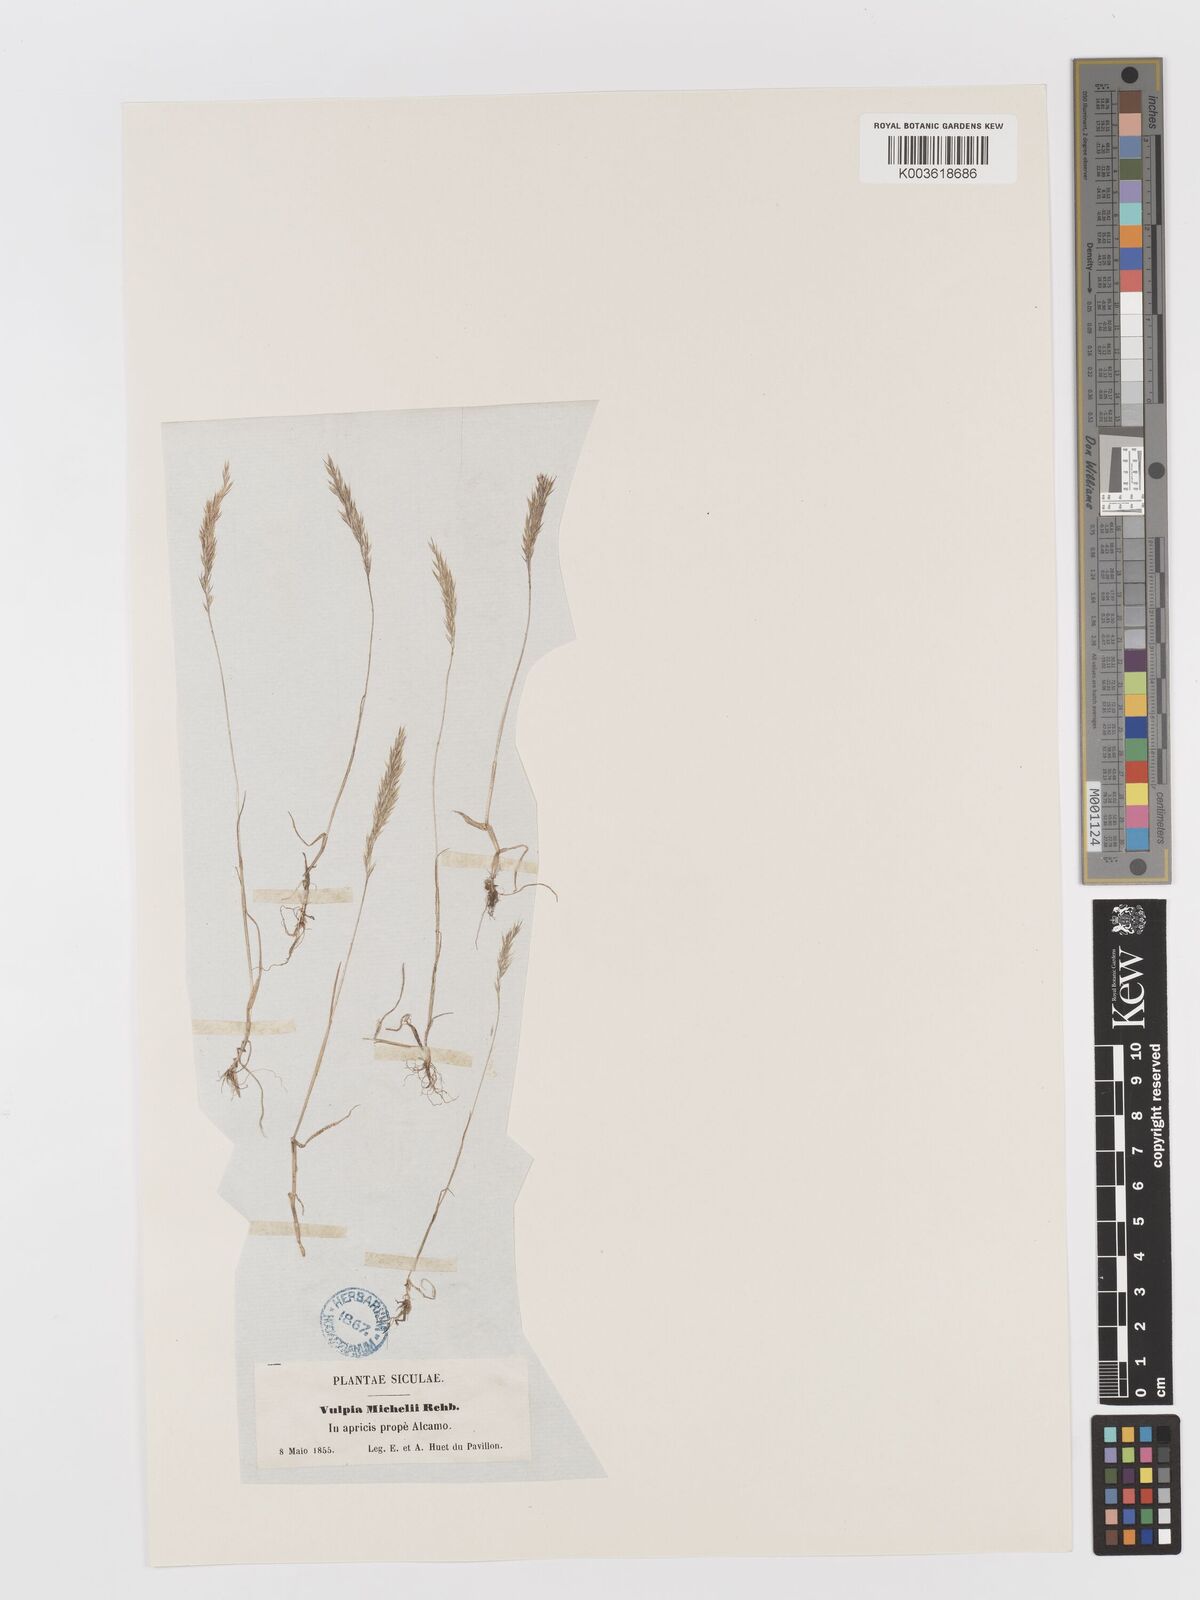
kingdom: Plantae
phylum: Tracheophyta
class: Liliopsida
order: Poales
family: Poaceae
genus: Avellinia
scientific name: Avellinia festucoides
